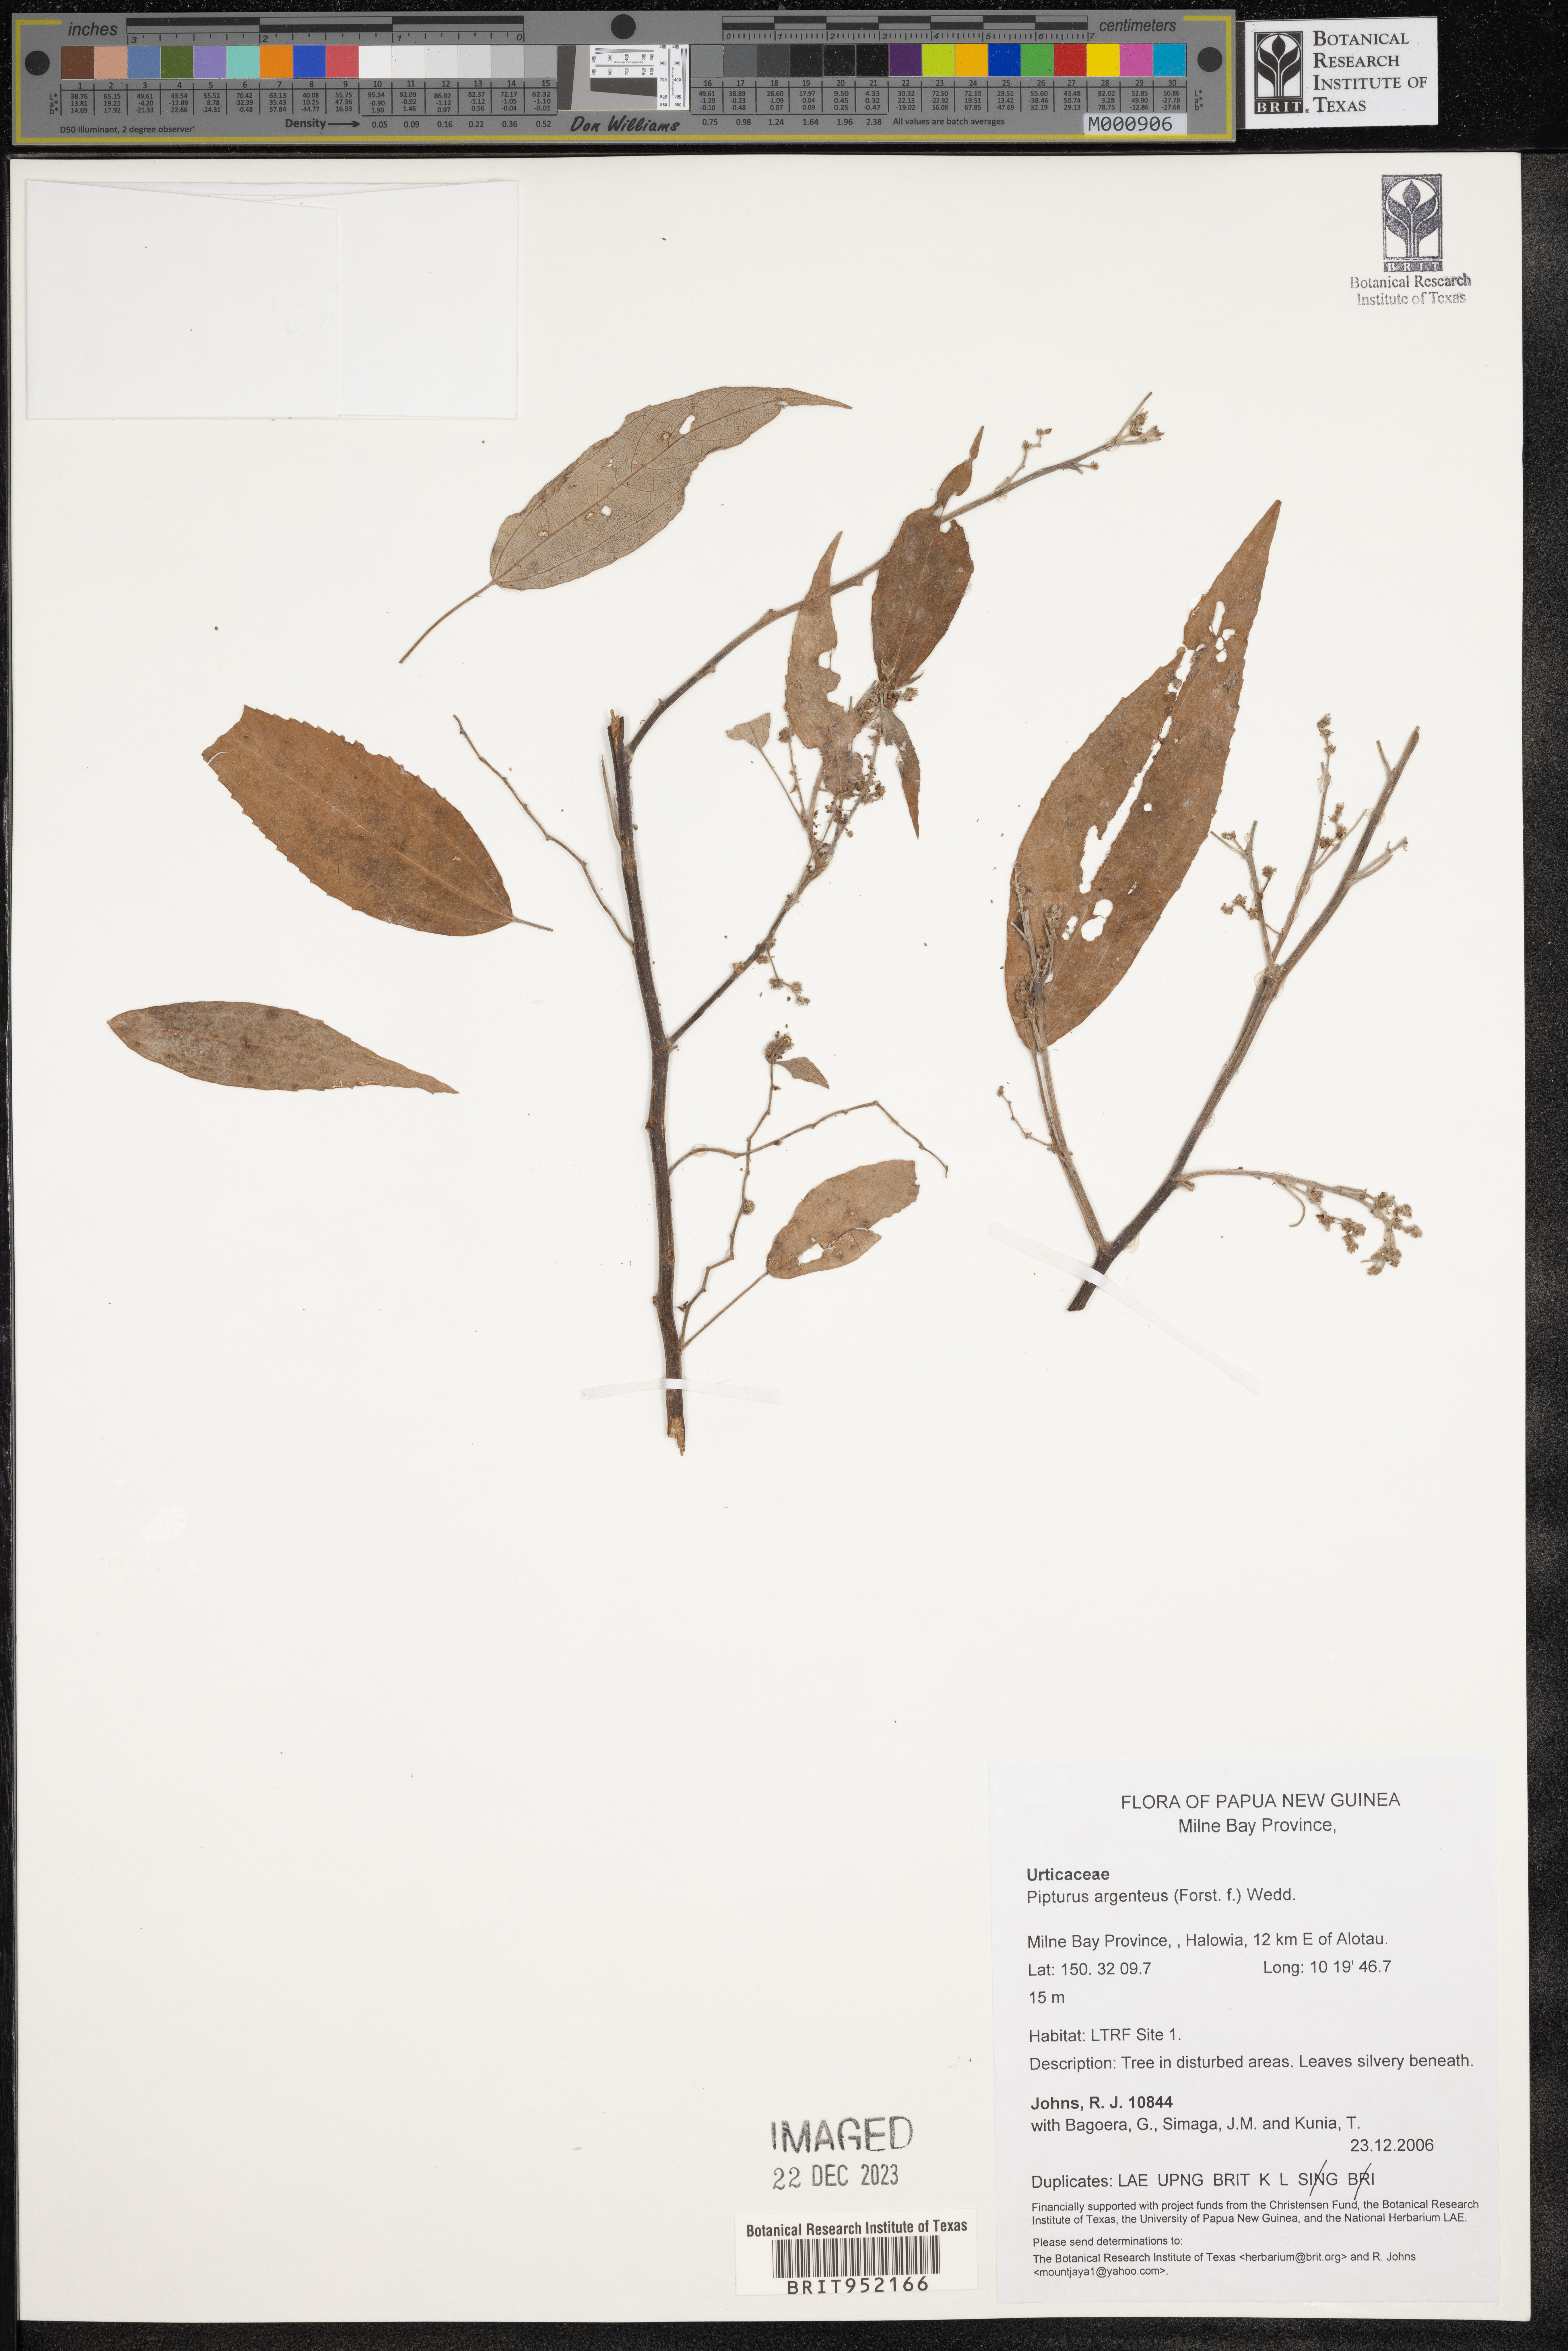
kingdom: Plantae
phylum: Tracheophyta
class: Magnoliopsida
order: Rosales
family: Urticaceae
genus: Pipturus
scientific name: Pipturus argenteus
